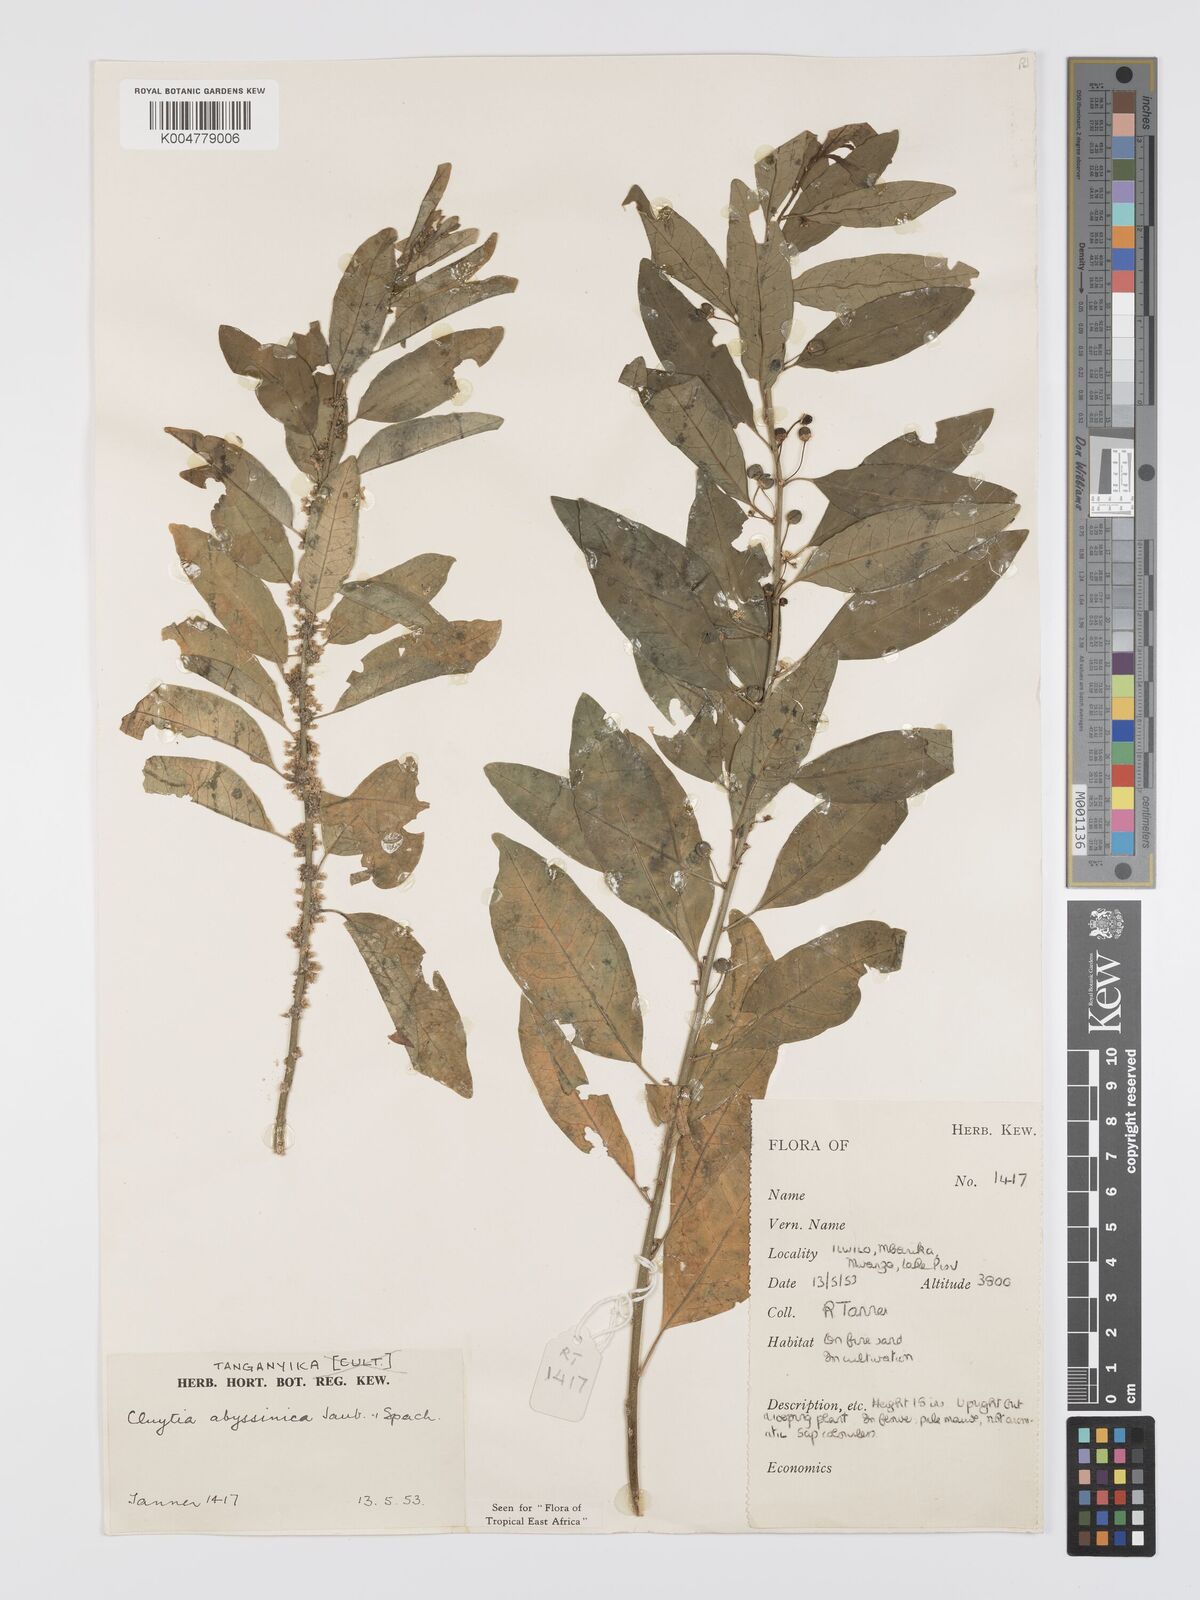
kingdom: Plantae
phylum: Tracheophyta
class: Magnoliopsida
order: Malpighiales
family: Peraceae
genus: Clutia
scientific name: Clutia abyssinica
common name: Large lightning bush
